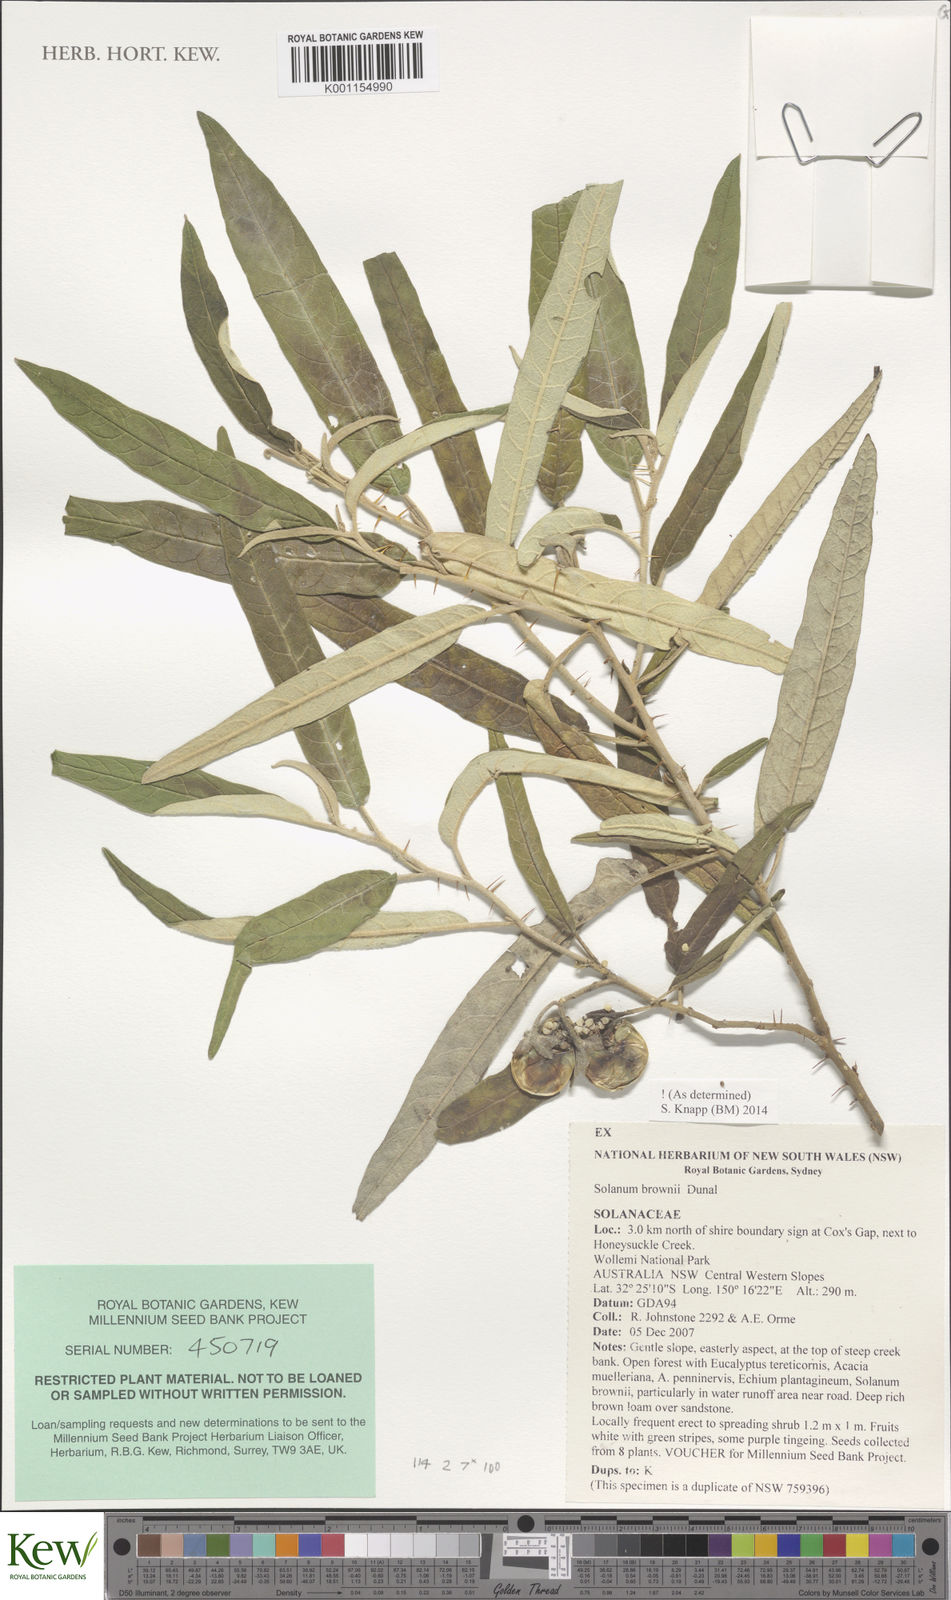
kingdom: Plantae
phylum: Tracheophyta
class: Magnoliopsida
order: Solanales
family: Solanaceae
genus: Solanum
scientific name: Solanum brownii
